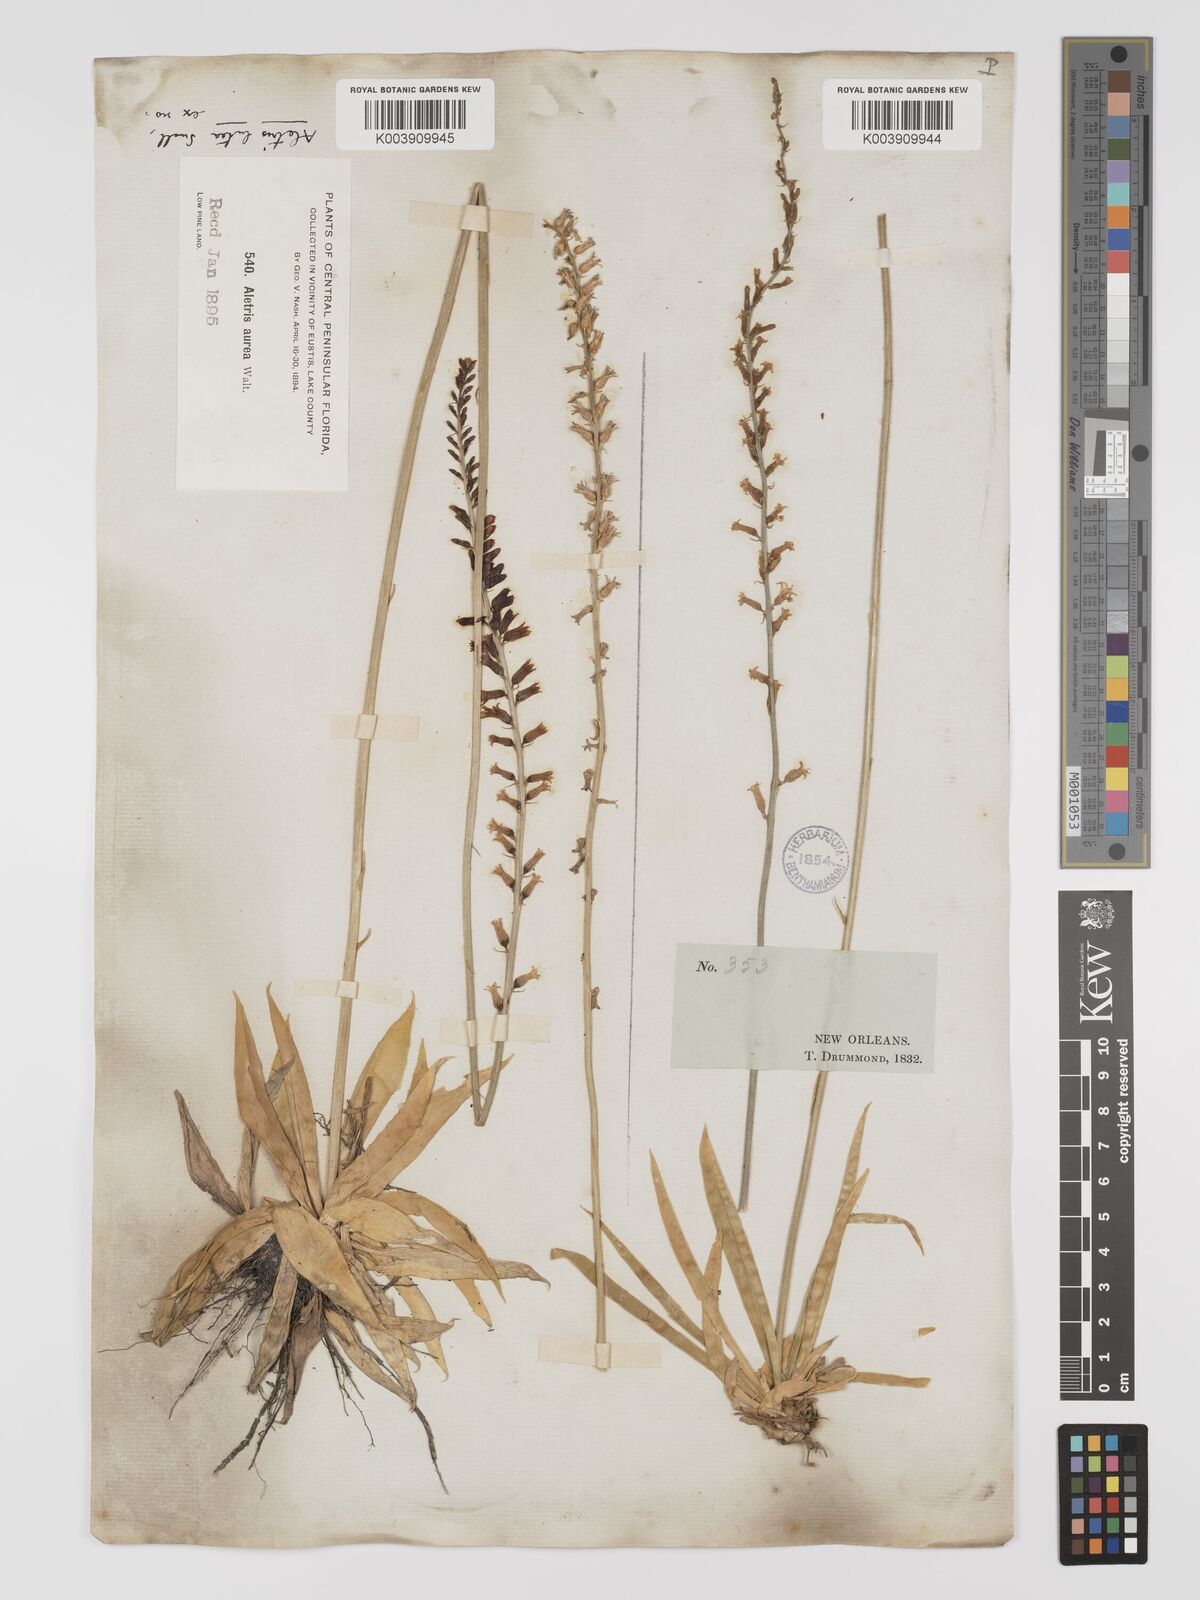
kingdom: Plantae
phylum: Tracheophyta
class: Liliopsida
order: Dioscoreales
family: Nartheciaceae
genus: Aletris
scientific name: Aletris lutea
